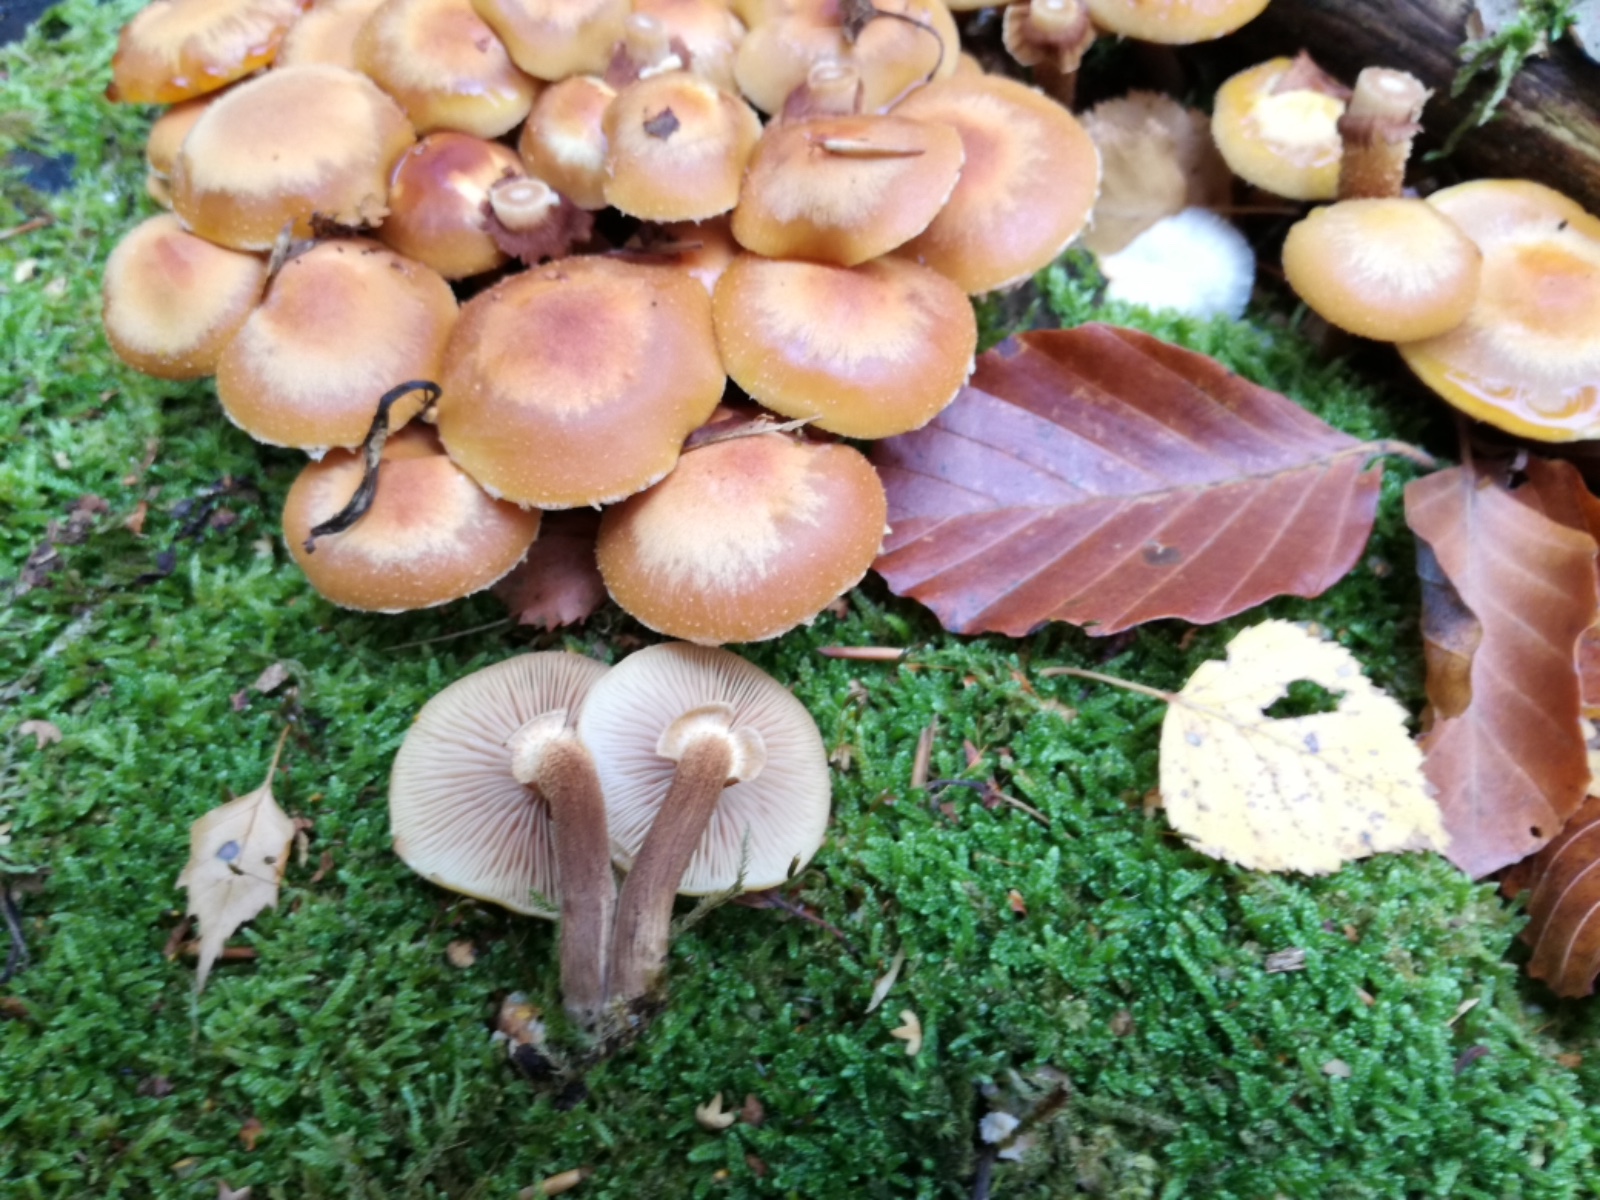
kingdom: Fungi
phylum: Basidiomycota
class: Agaricomycetes
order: Agaricales
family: Strophariaceae
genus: Kuehneromyces
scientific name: Kuehneromyces mutabilis
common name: foranderlig skælhat
